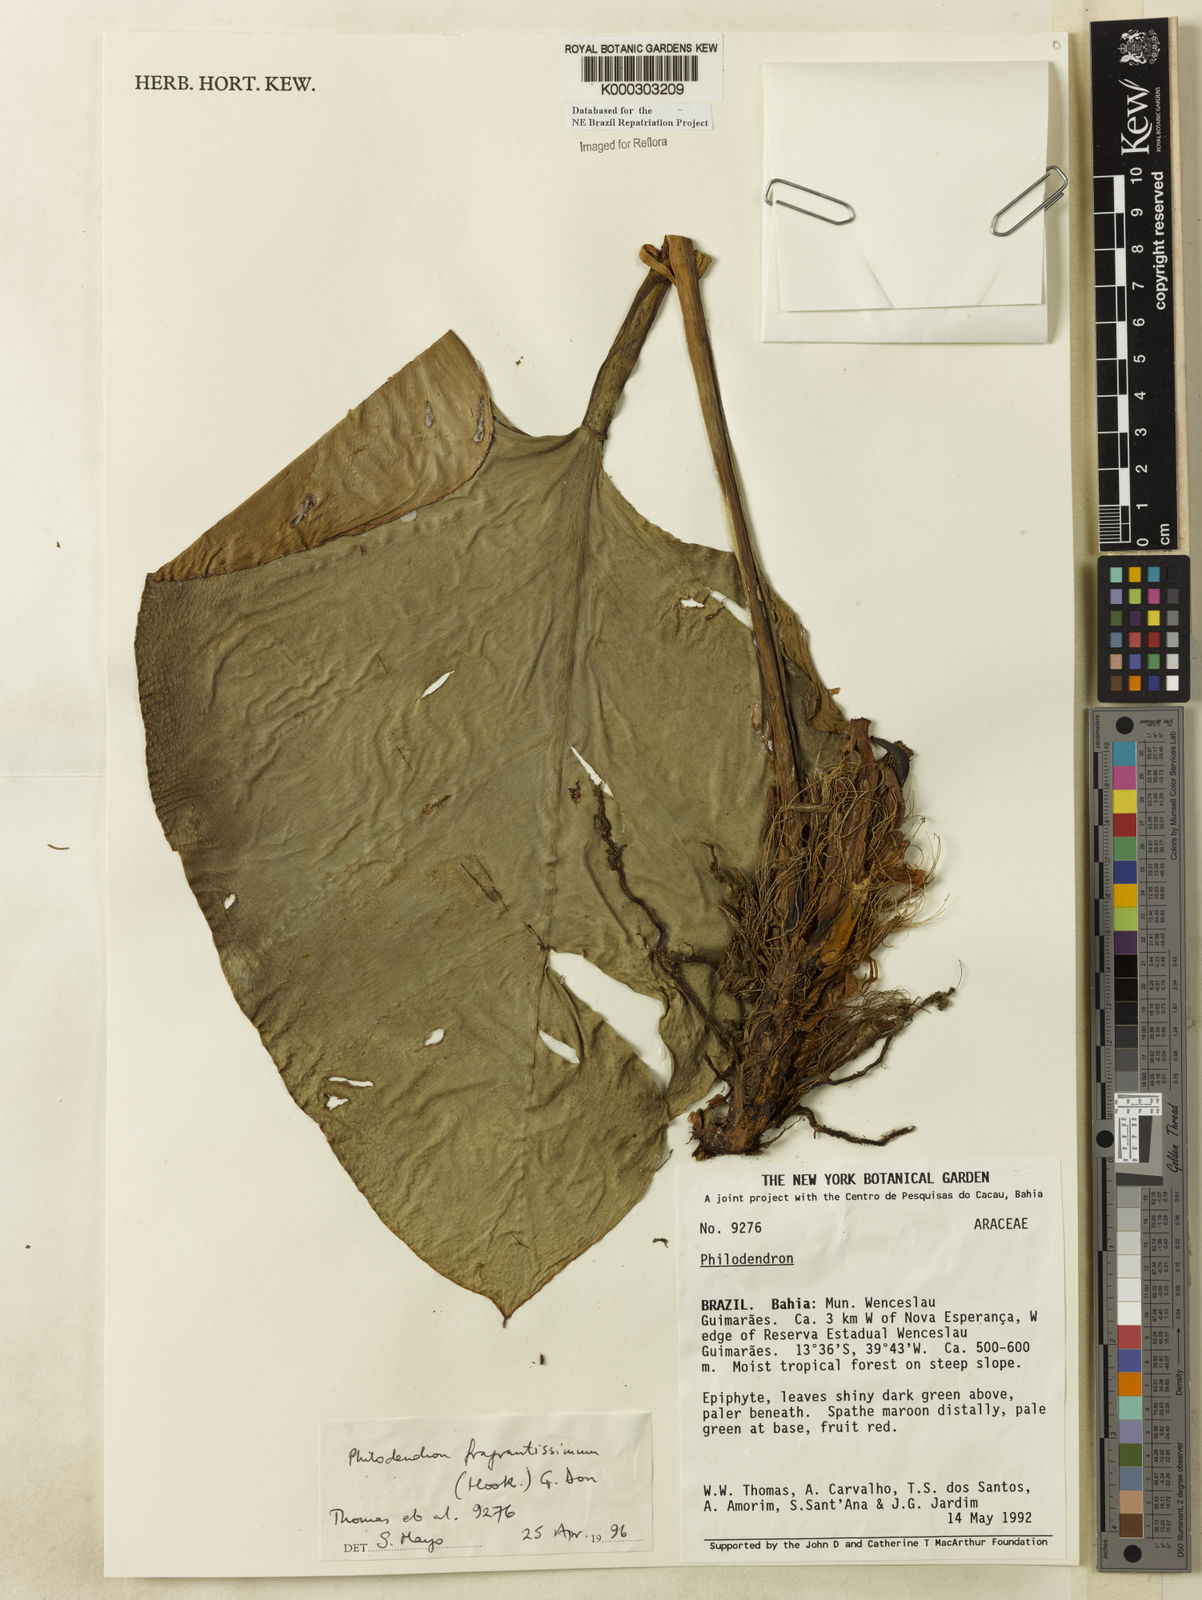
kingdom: Plantae
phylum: Tracheophyta
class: Liliopsida
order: Alismatales
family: Araceae
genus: Philodendron
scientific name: Philodendron fragrantissimum
